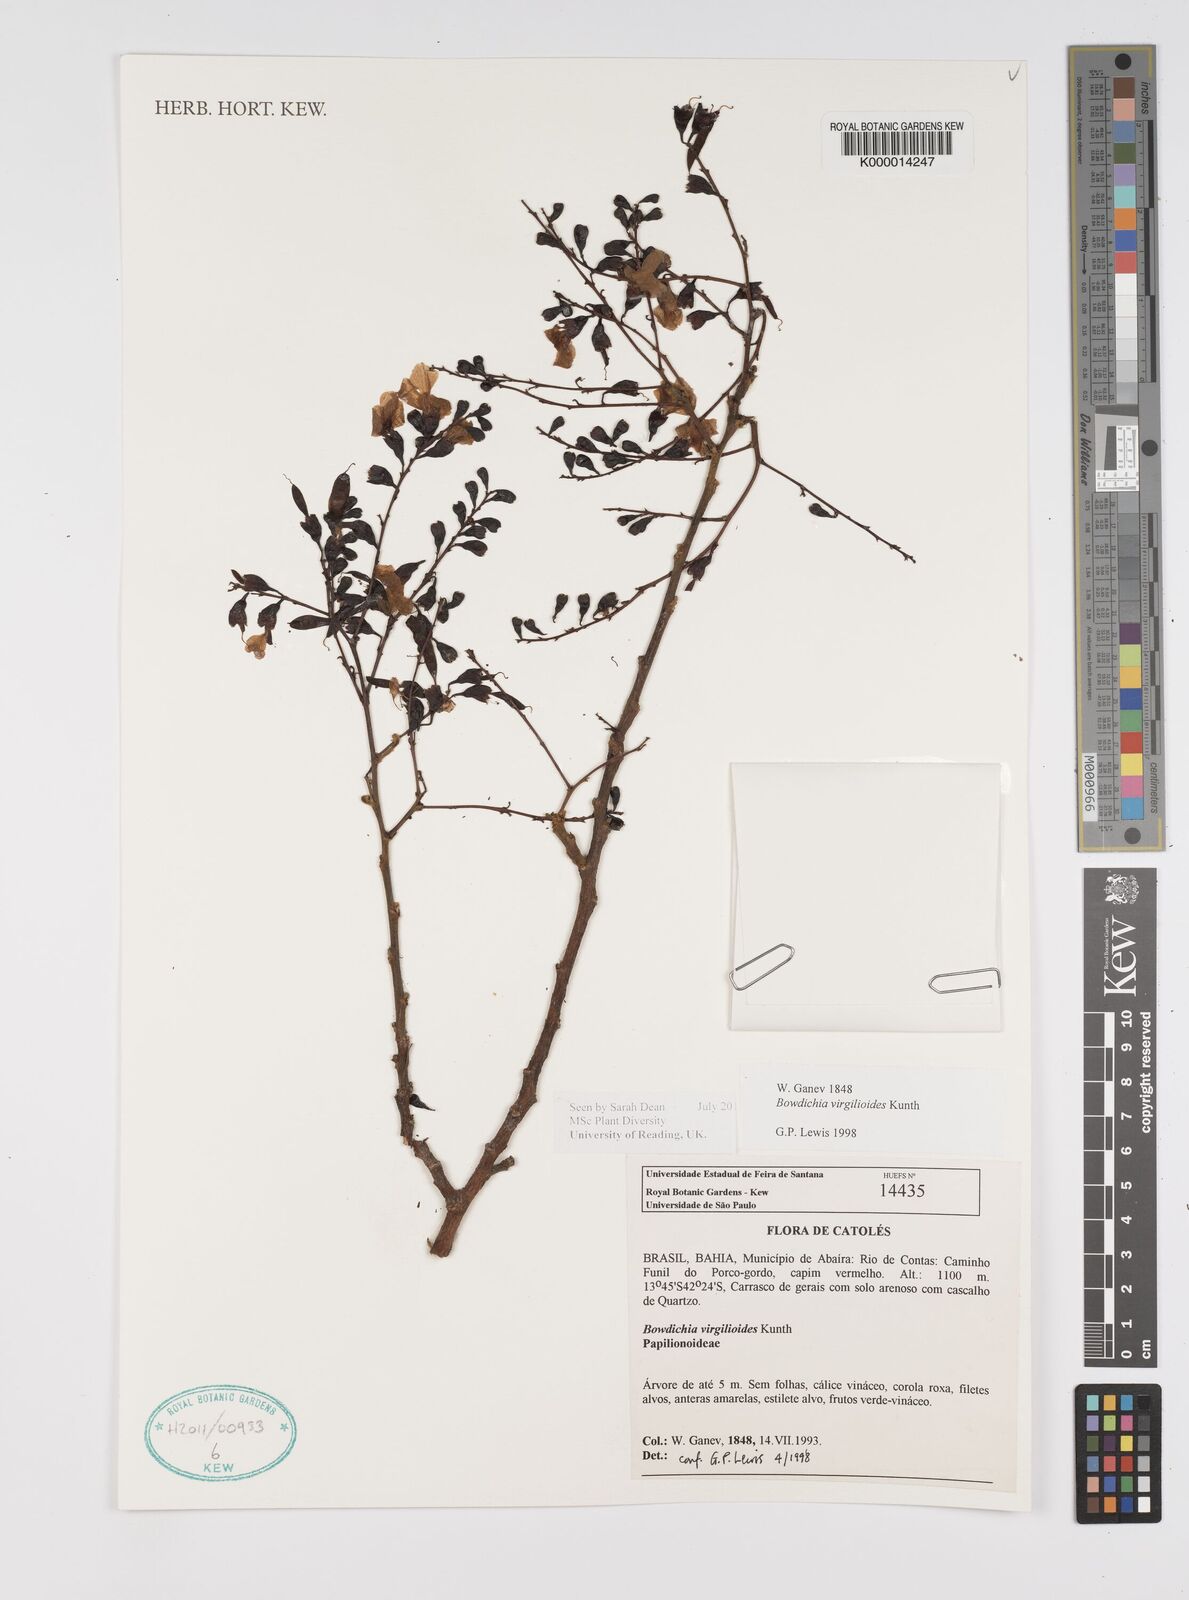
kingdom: Plantae
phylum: Tracheophyta
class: Magnoliopsida
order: Fabales
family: Fabaceae
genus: Bowdichia
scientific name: Bowdichia virgilioides
